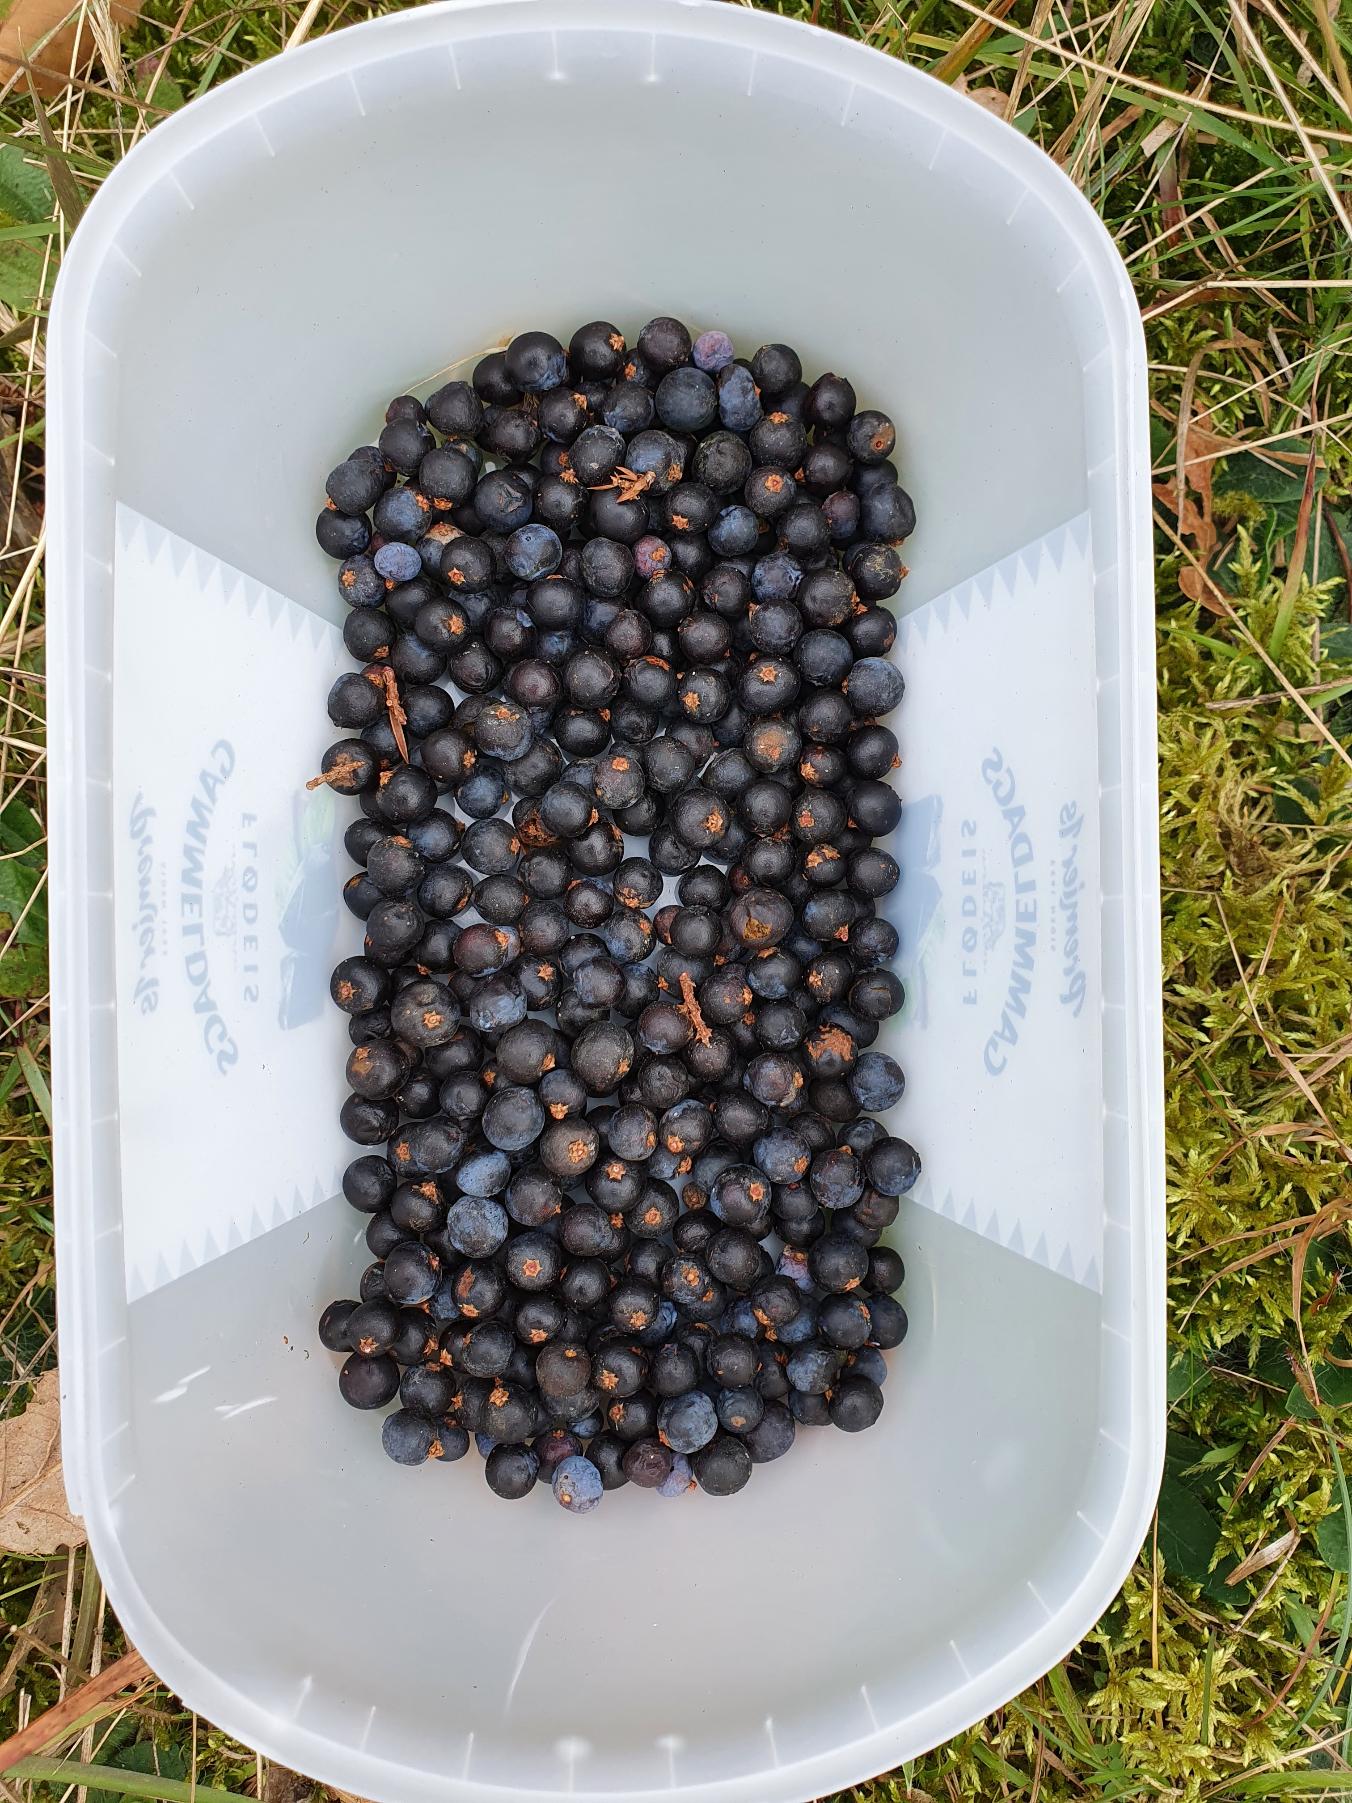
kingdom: Plantae
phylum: Tracheophyta
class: Pinopsida
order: Pinales
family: Cupressaceae
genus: Juniperus
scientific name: Juniperus communis
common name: Almindelig ene
